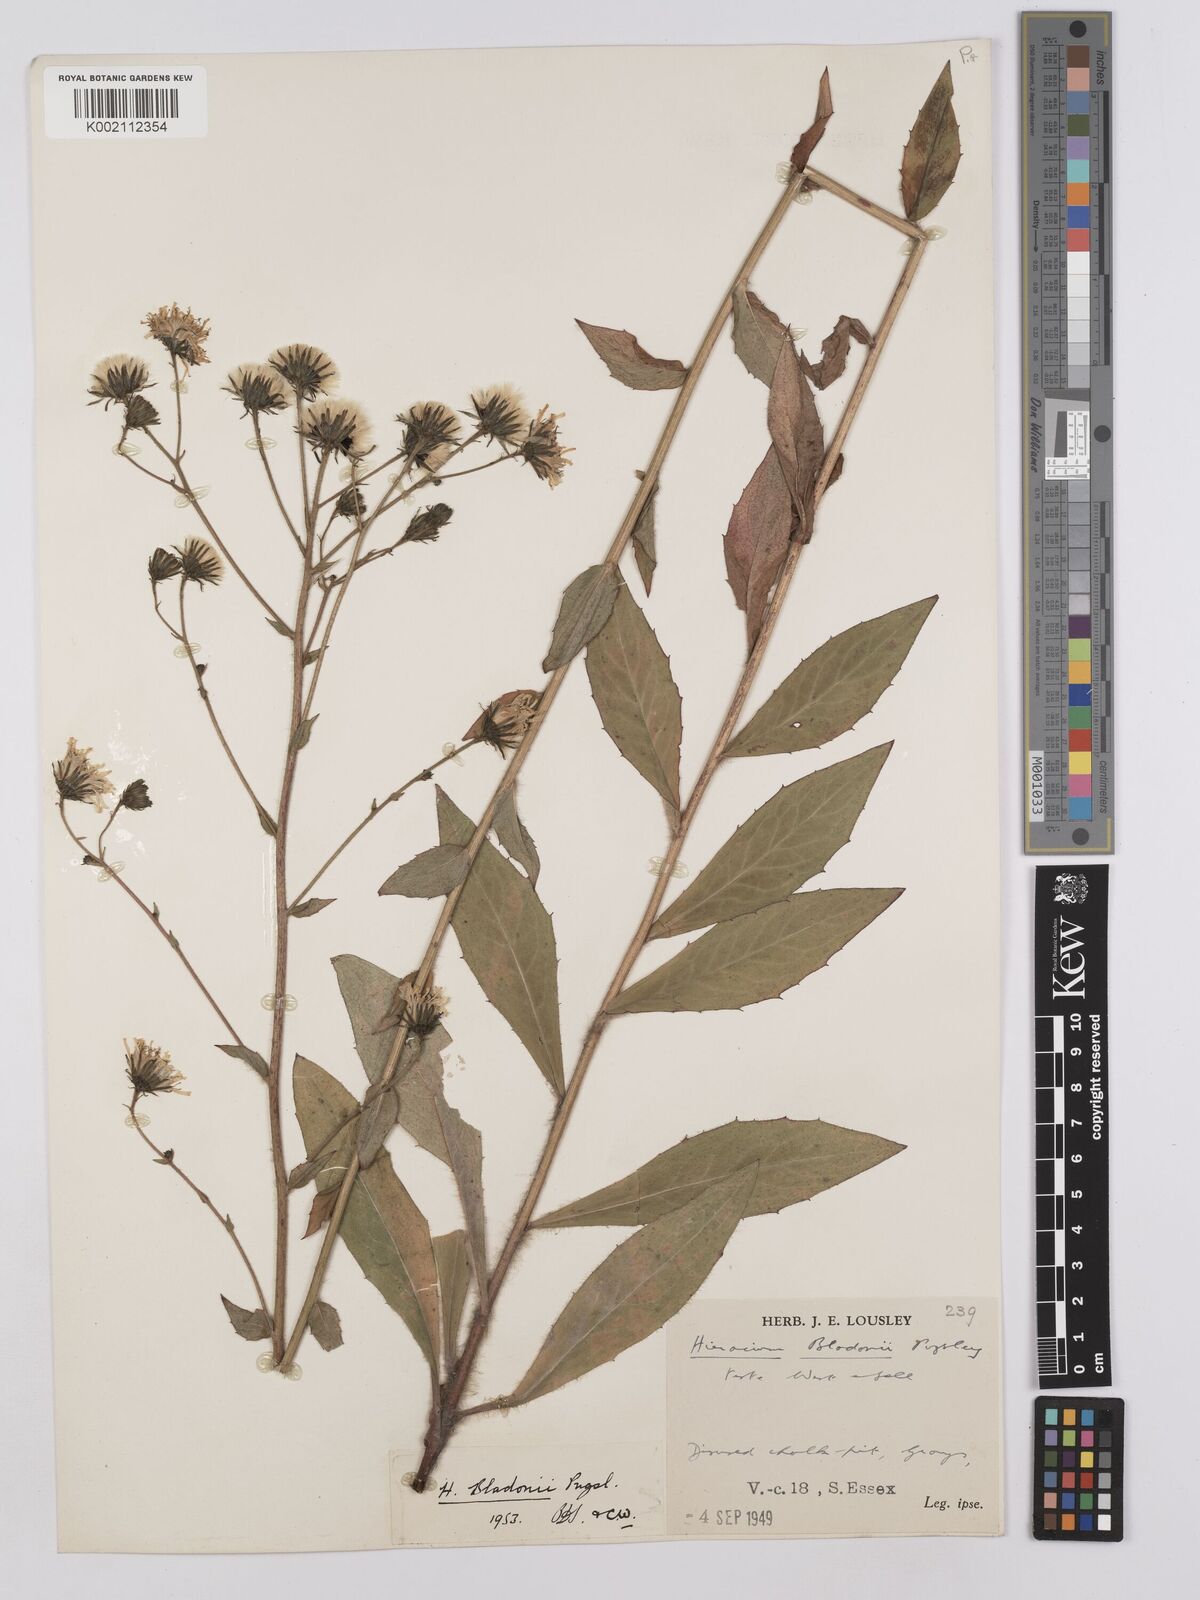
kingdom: Plantae
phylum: Tracheophyta
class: Magnoliopsida
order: Asterales
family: Asteraceae
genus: Hieracium
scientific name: Hieracium sabaudum
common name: New england hawkweed
